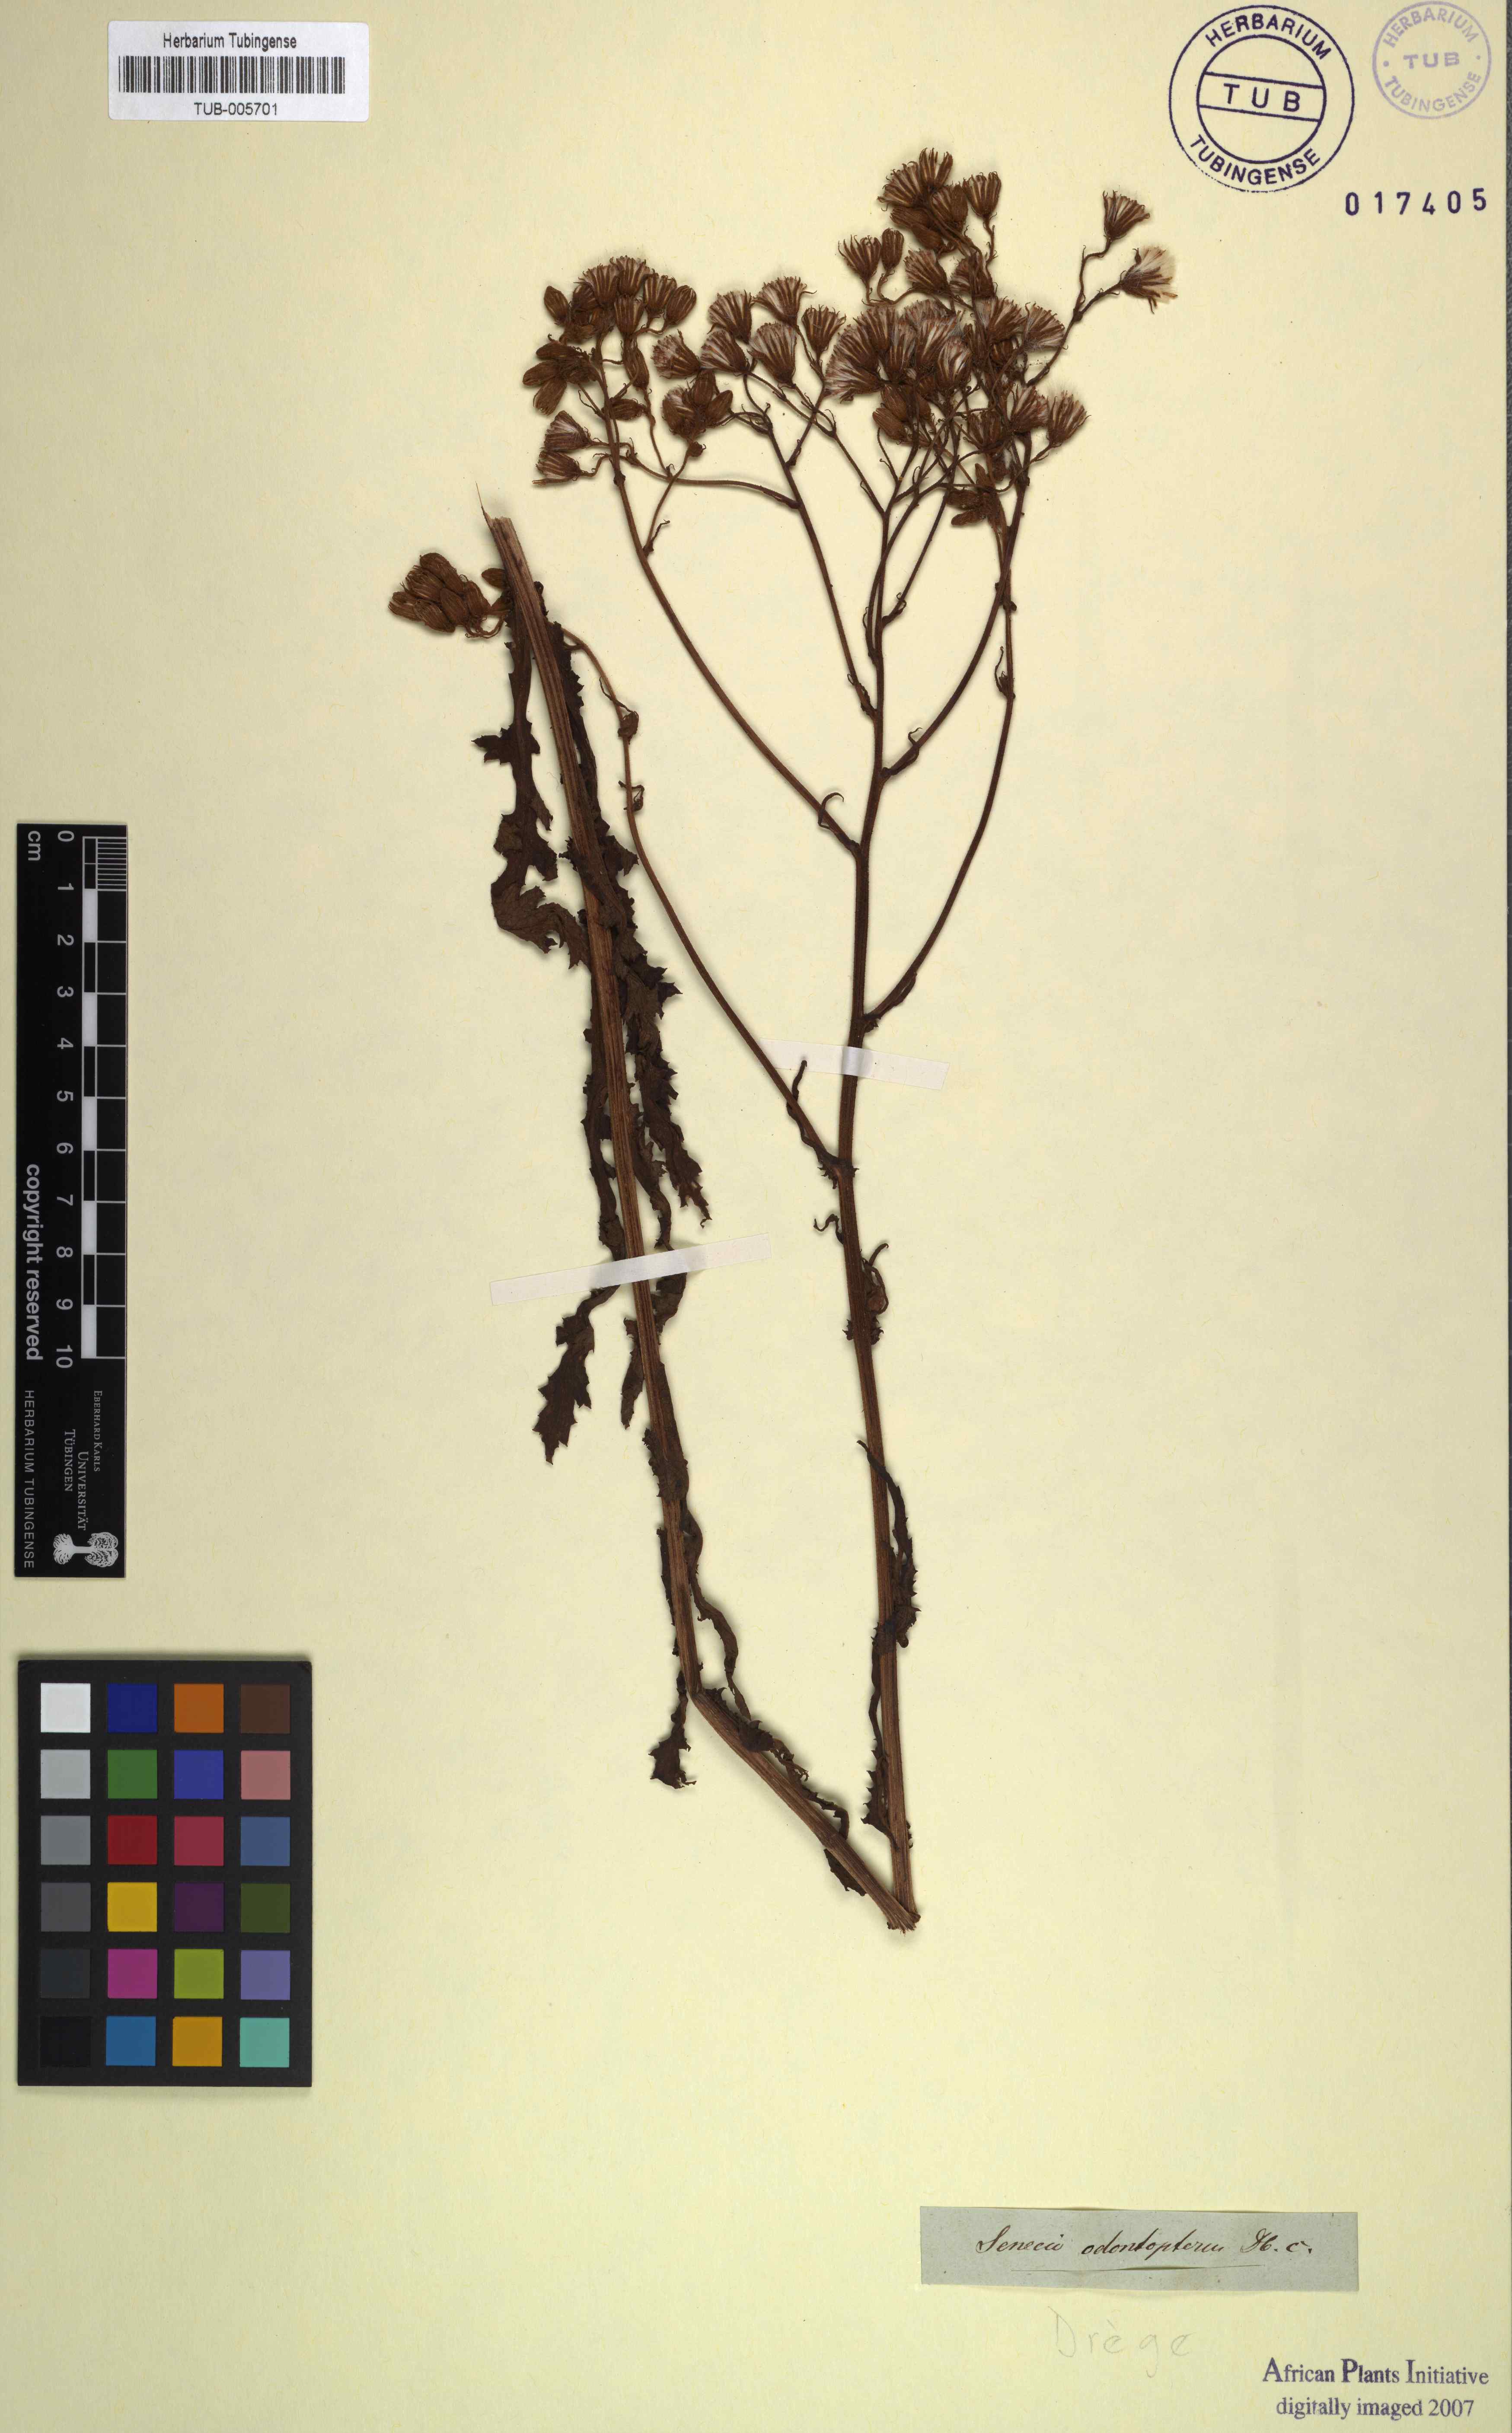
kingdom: Plantae
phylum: Tracheophyta
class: Magnoliopsida
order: Asterales
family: Asteraceae
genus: Senecio
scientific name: Senecio odontopterus
